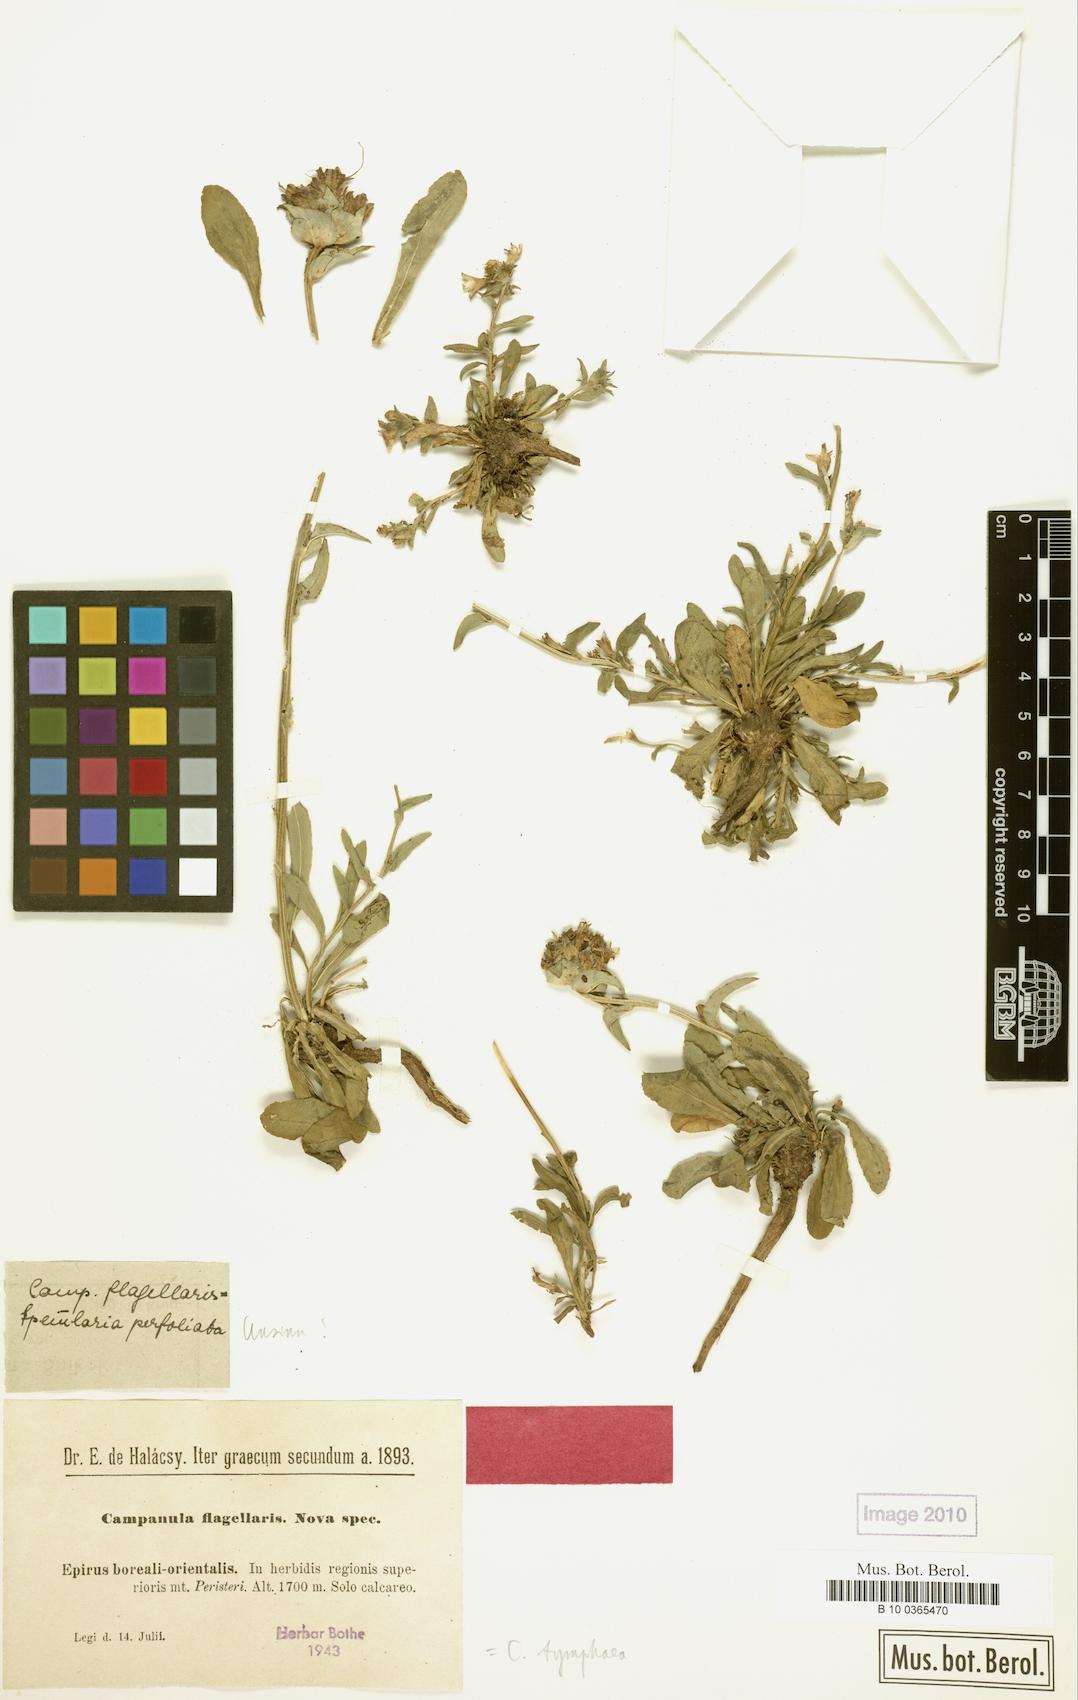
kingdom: Plantae
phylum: Tracheophyta
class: Magnoliopsida
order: Asterales
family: Campanulaceae
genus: Campanula
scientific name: Campanula tymphaea
